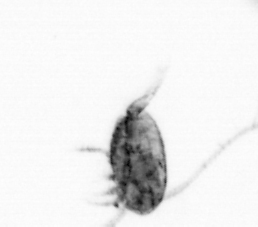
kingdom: Animalia
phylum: Arthropoda
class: Copepoda
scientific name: Copepoda
